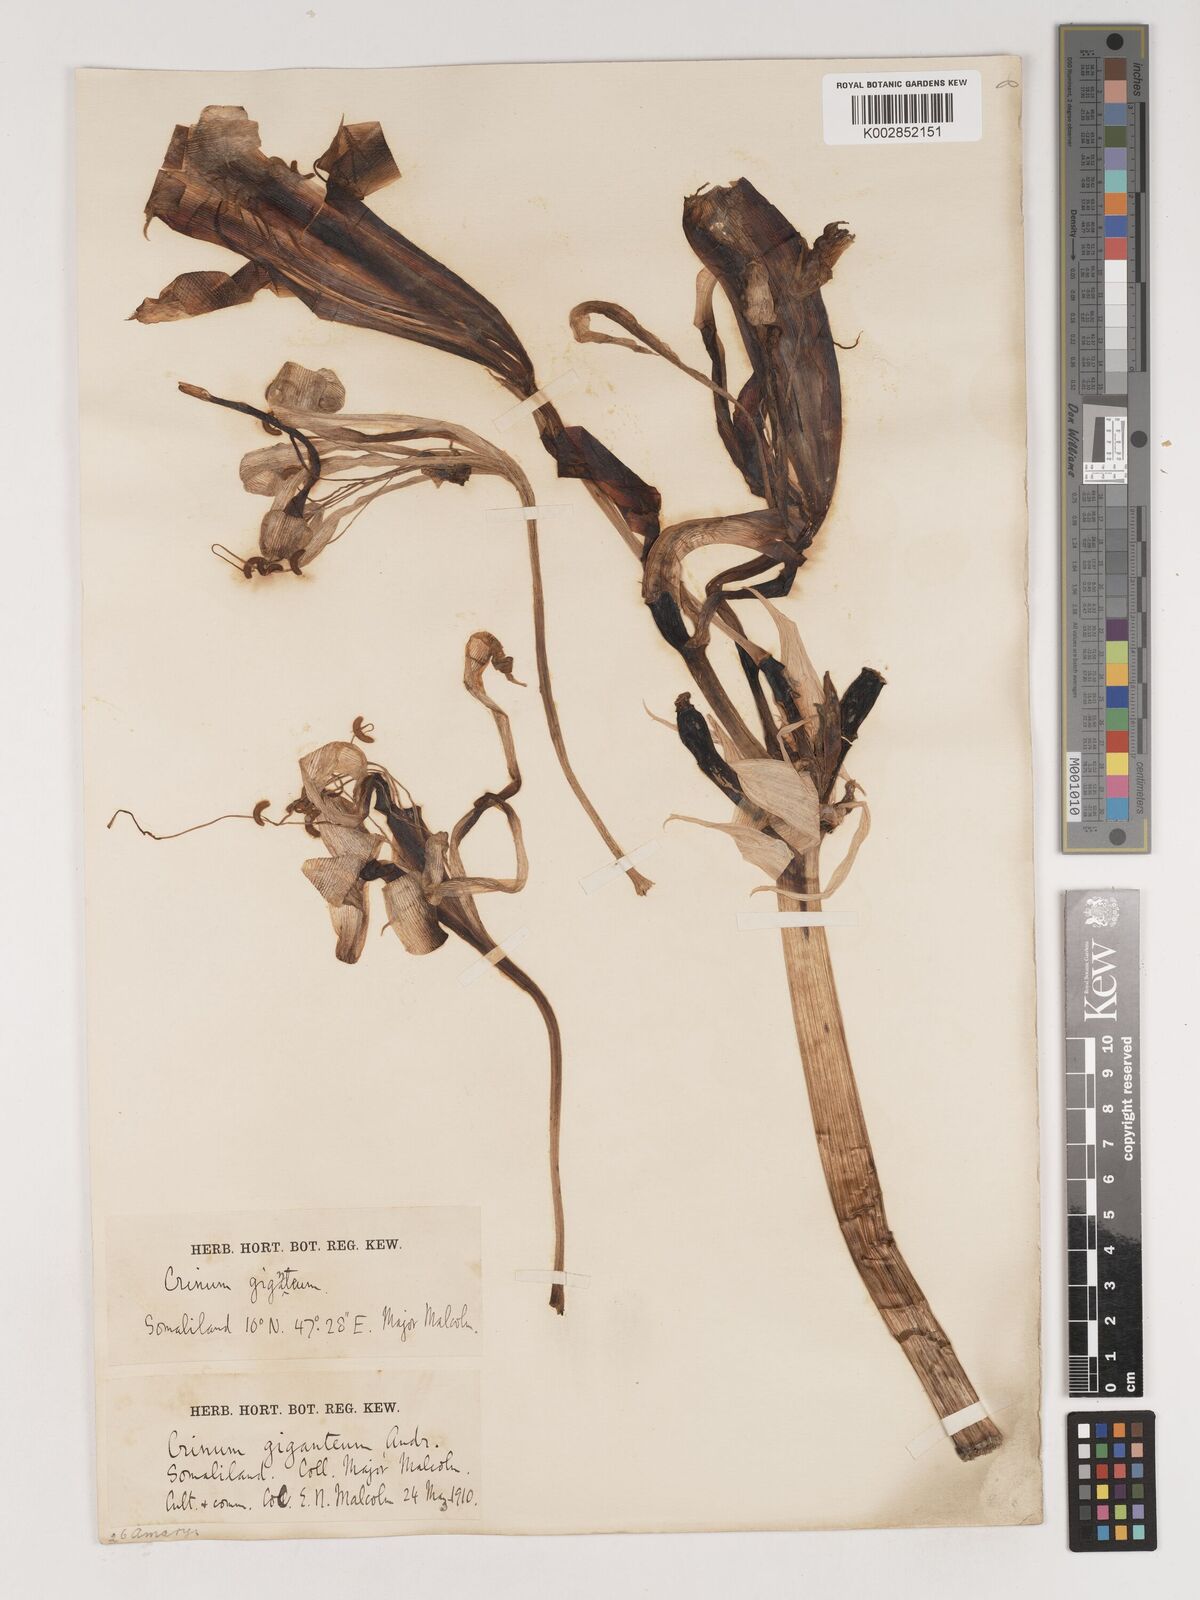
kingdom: Plantae
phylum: Tracheophyta
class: Liliopsida
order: Asparagales
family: Amaryllidaceae
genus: Crinum
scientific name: Crinum jagus
